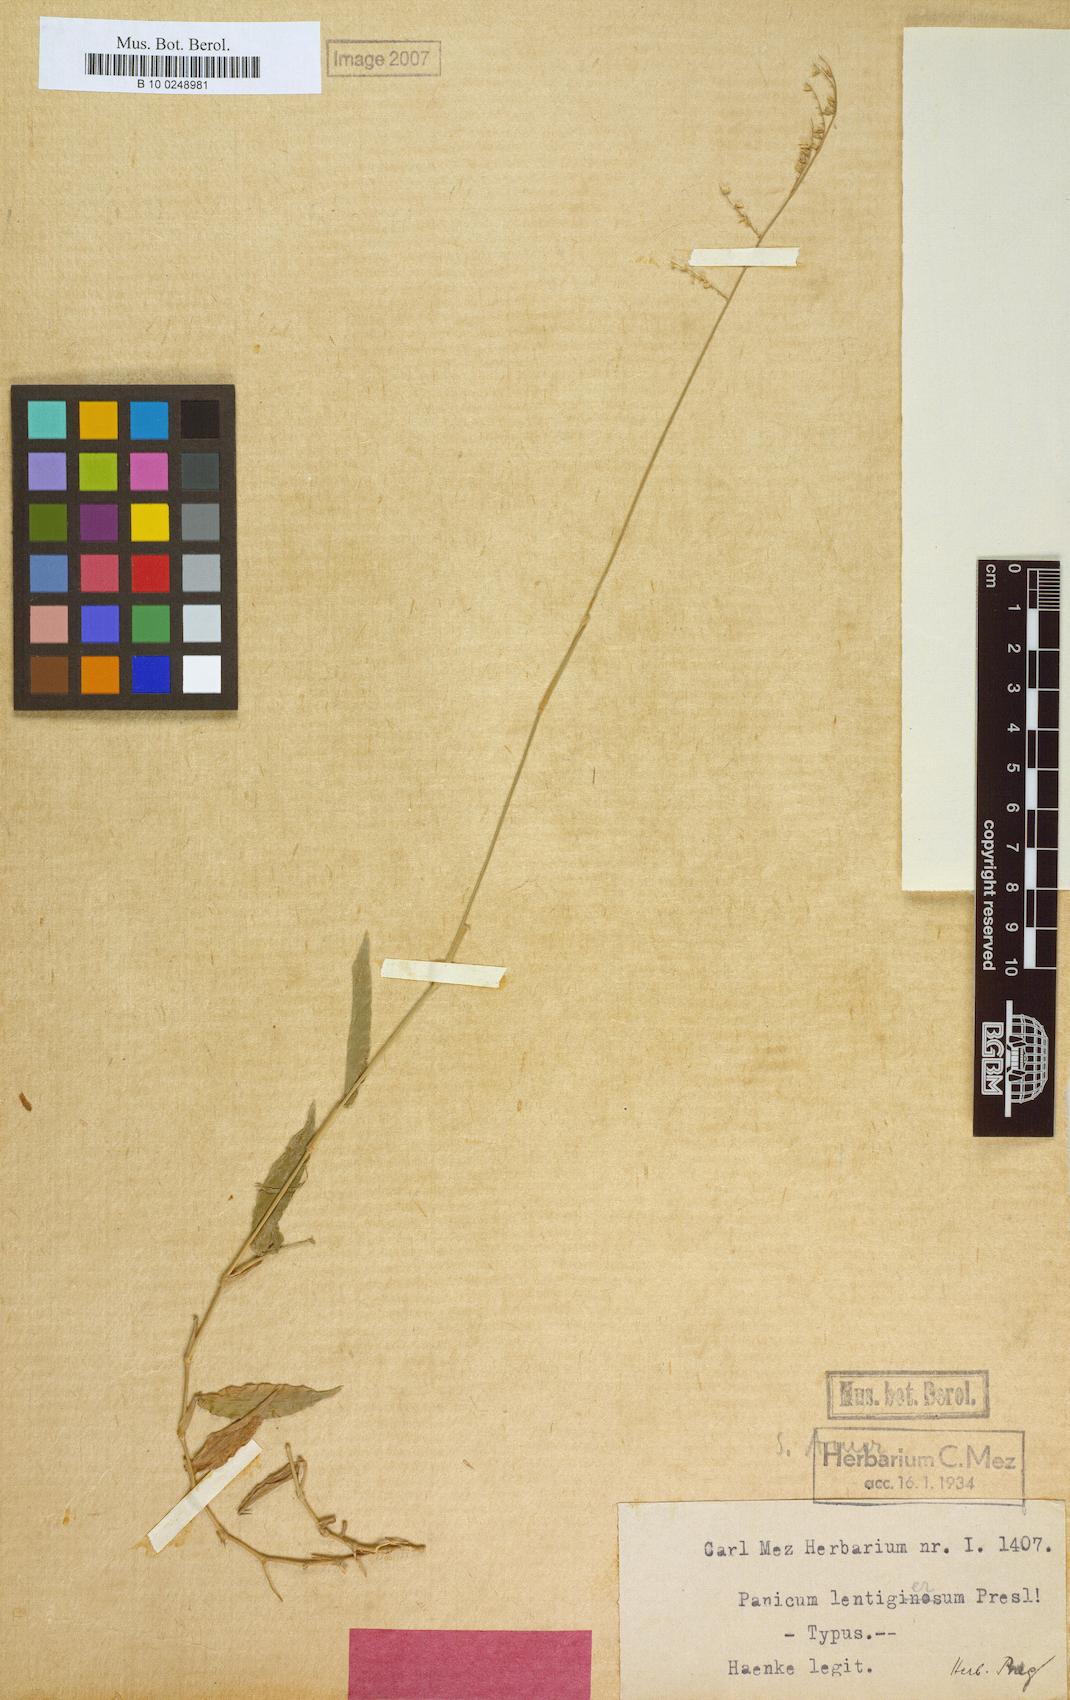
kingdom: Plantae
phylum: Tracheophyta
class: Liliopsida
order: Poales
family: Poaceae
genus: Panicum
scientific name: Panicum lentigerum
